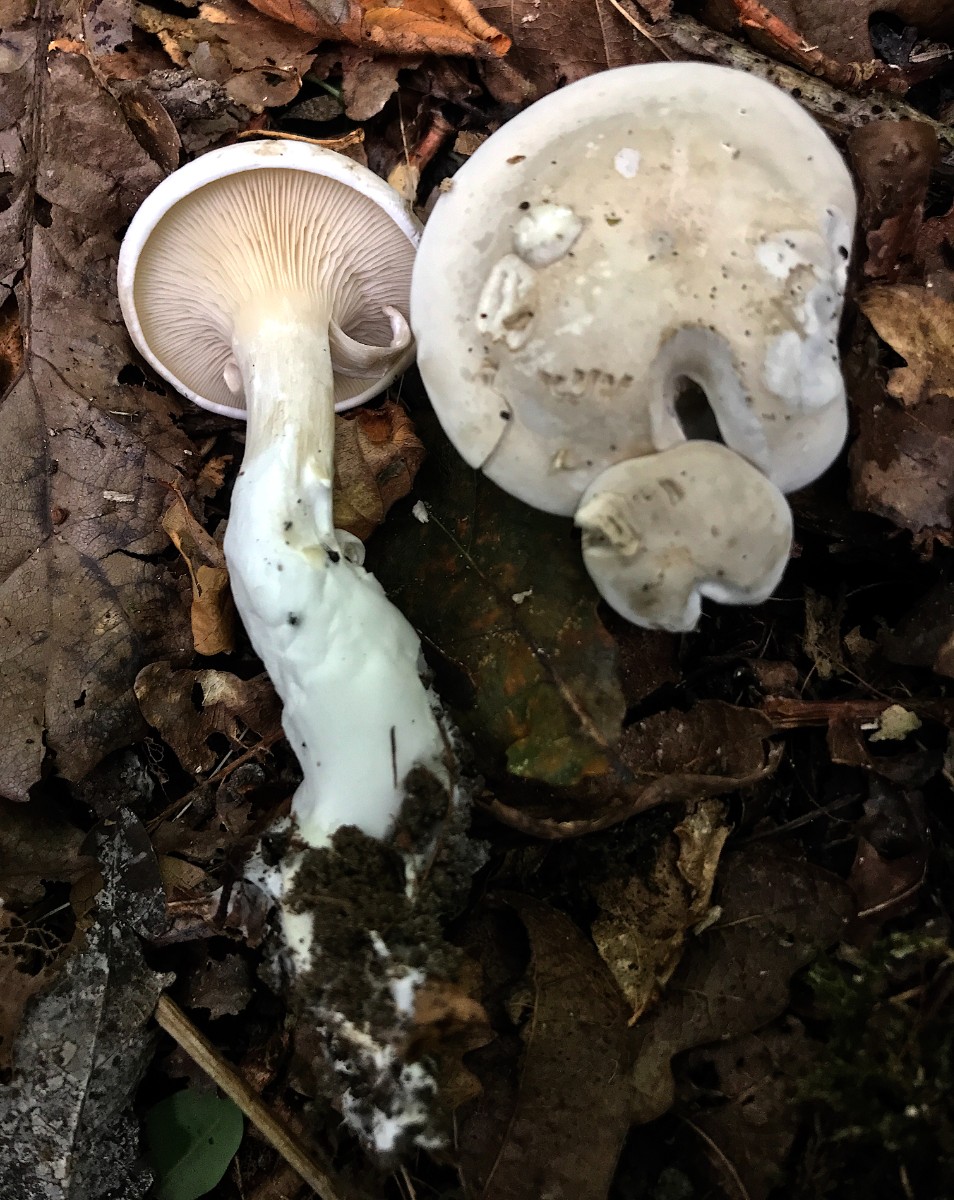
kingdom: Fungi
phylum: Basidiomycota
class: Agaricomycetes
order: Agaricales
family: Entolomataceae
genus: Clitopilus
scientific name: Clitopilus prunulus
